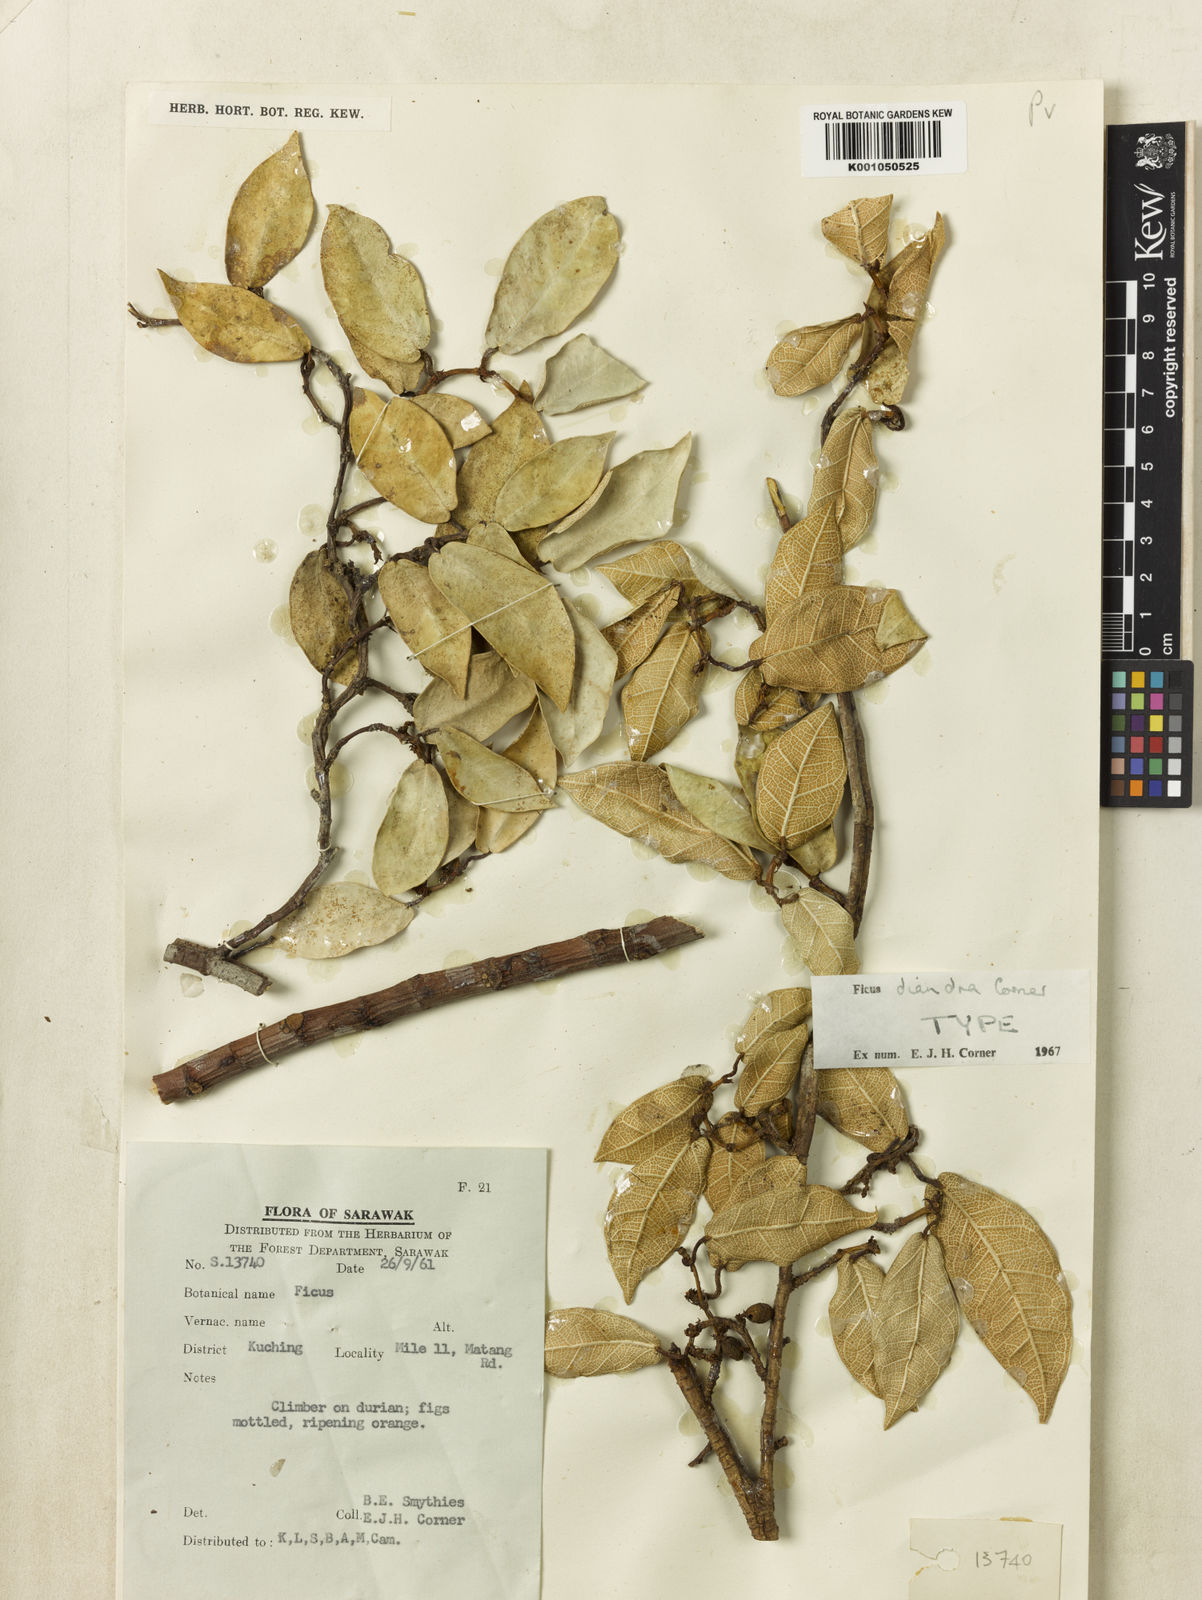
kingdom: Plantae
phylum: Tracheophyta
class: Magnoliopsida
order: Rosales
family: Moraceae
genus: Ficus
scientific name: Ficus diandra
